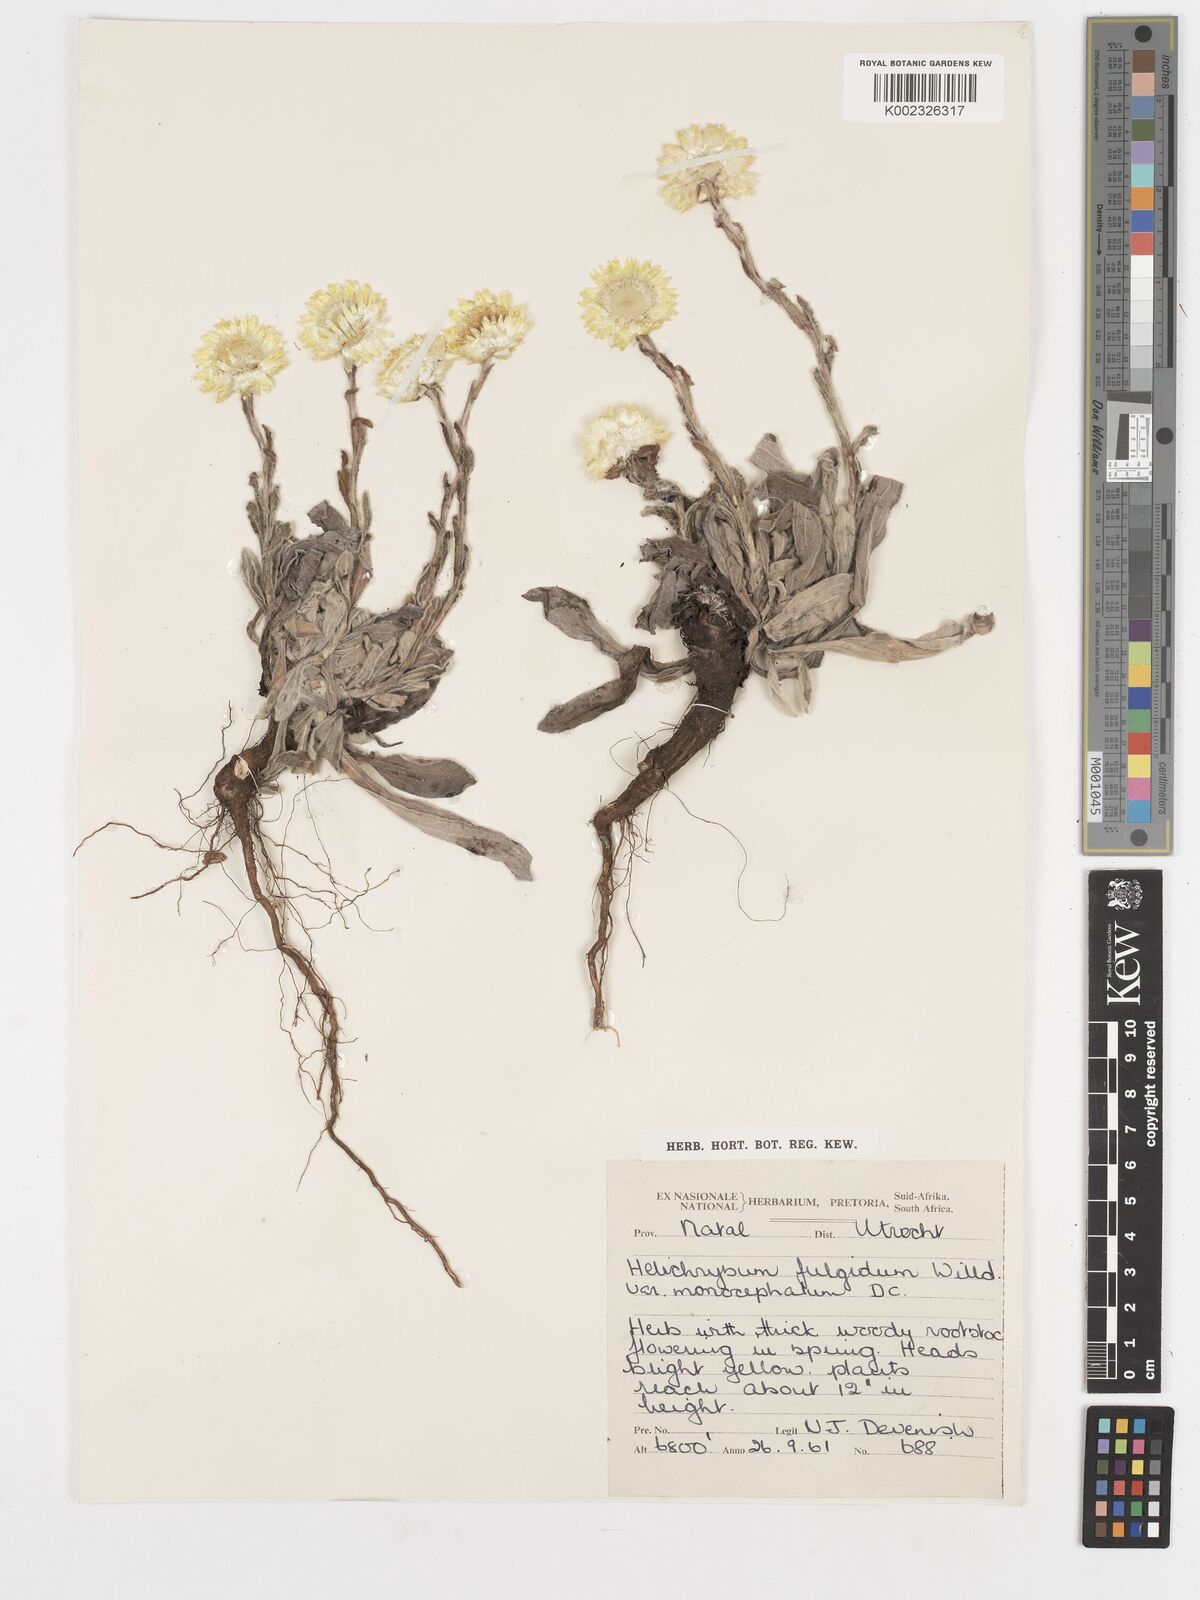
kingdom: Plantae
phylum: Tracheophyta
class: Magnoliopsida
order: Asterales
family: Asteraceae
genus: Helichrysum
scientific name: Helichrysum aureum
